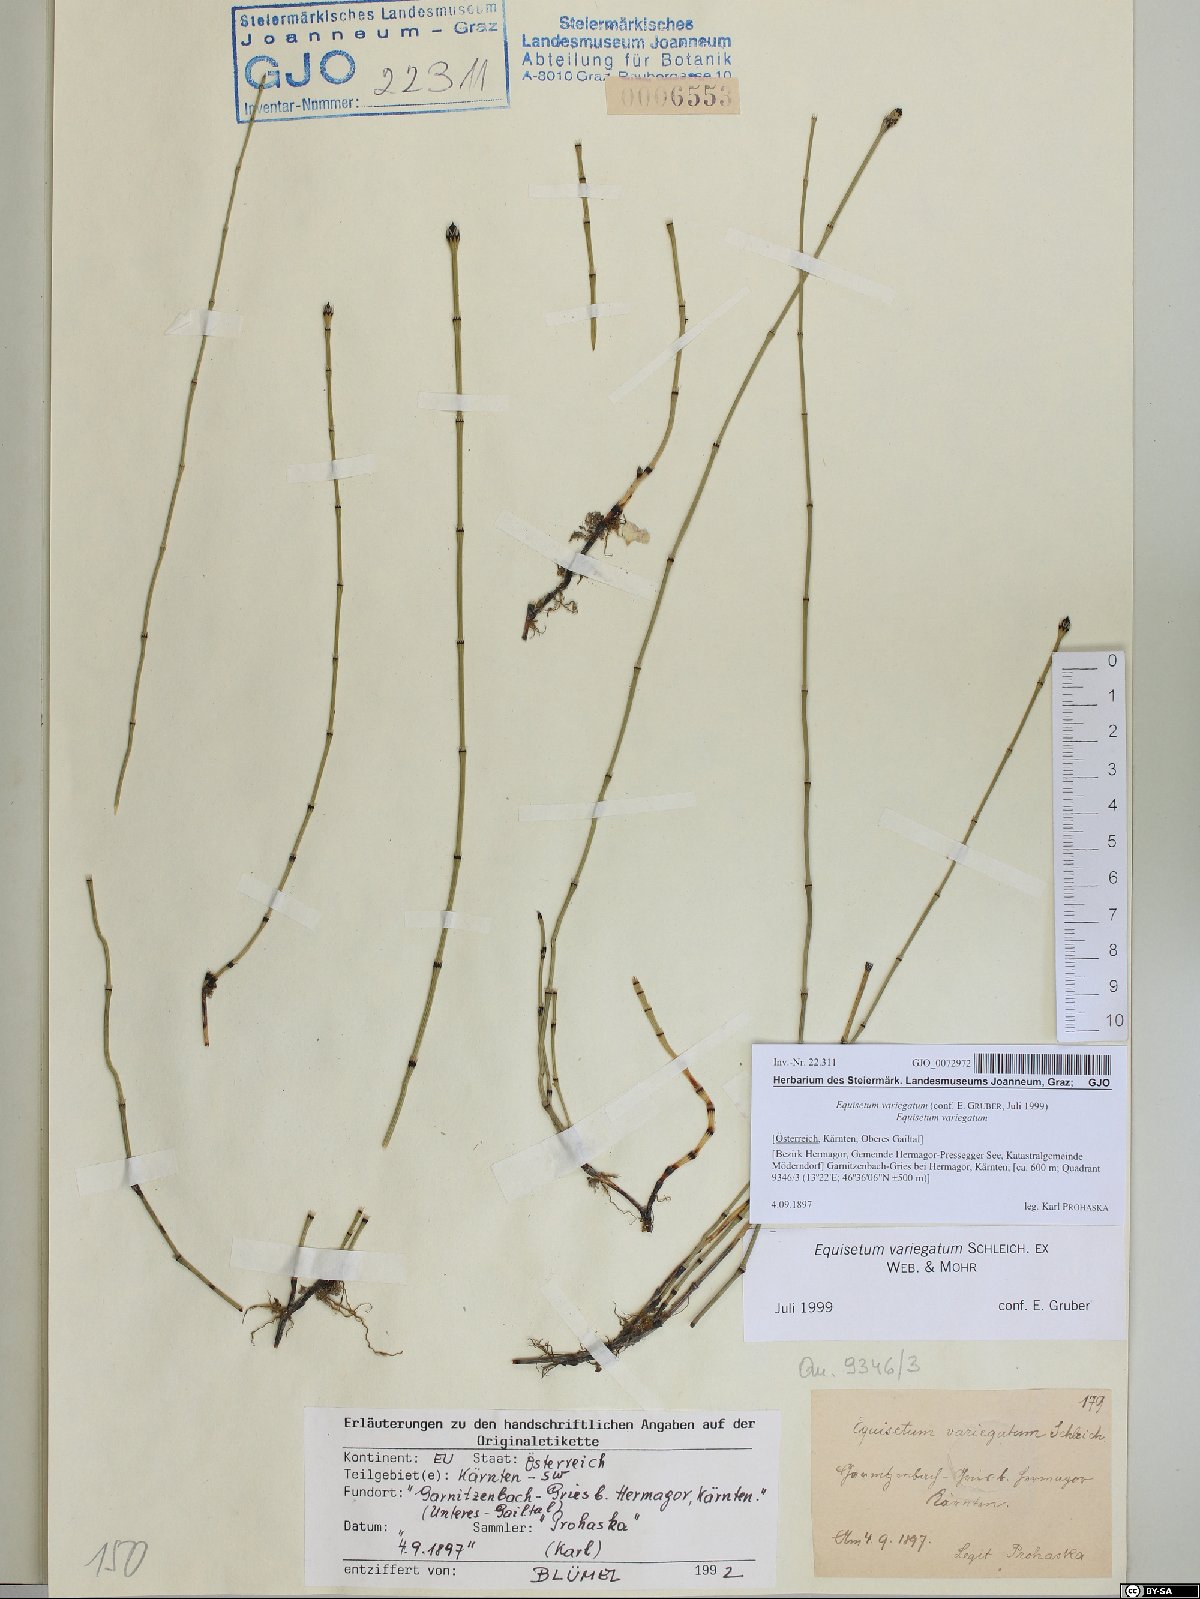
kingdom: Plantae
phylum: Tracheophyta
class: Polypodiopsida
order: Equisetales
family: Equisetaceae
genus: Equisetum
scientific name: Equisetum variegatum
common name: Variegated horsetail
